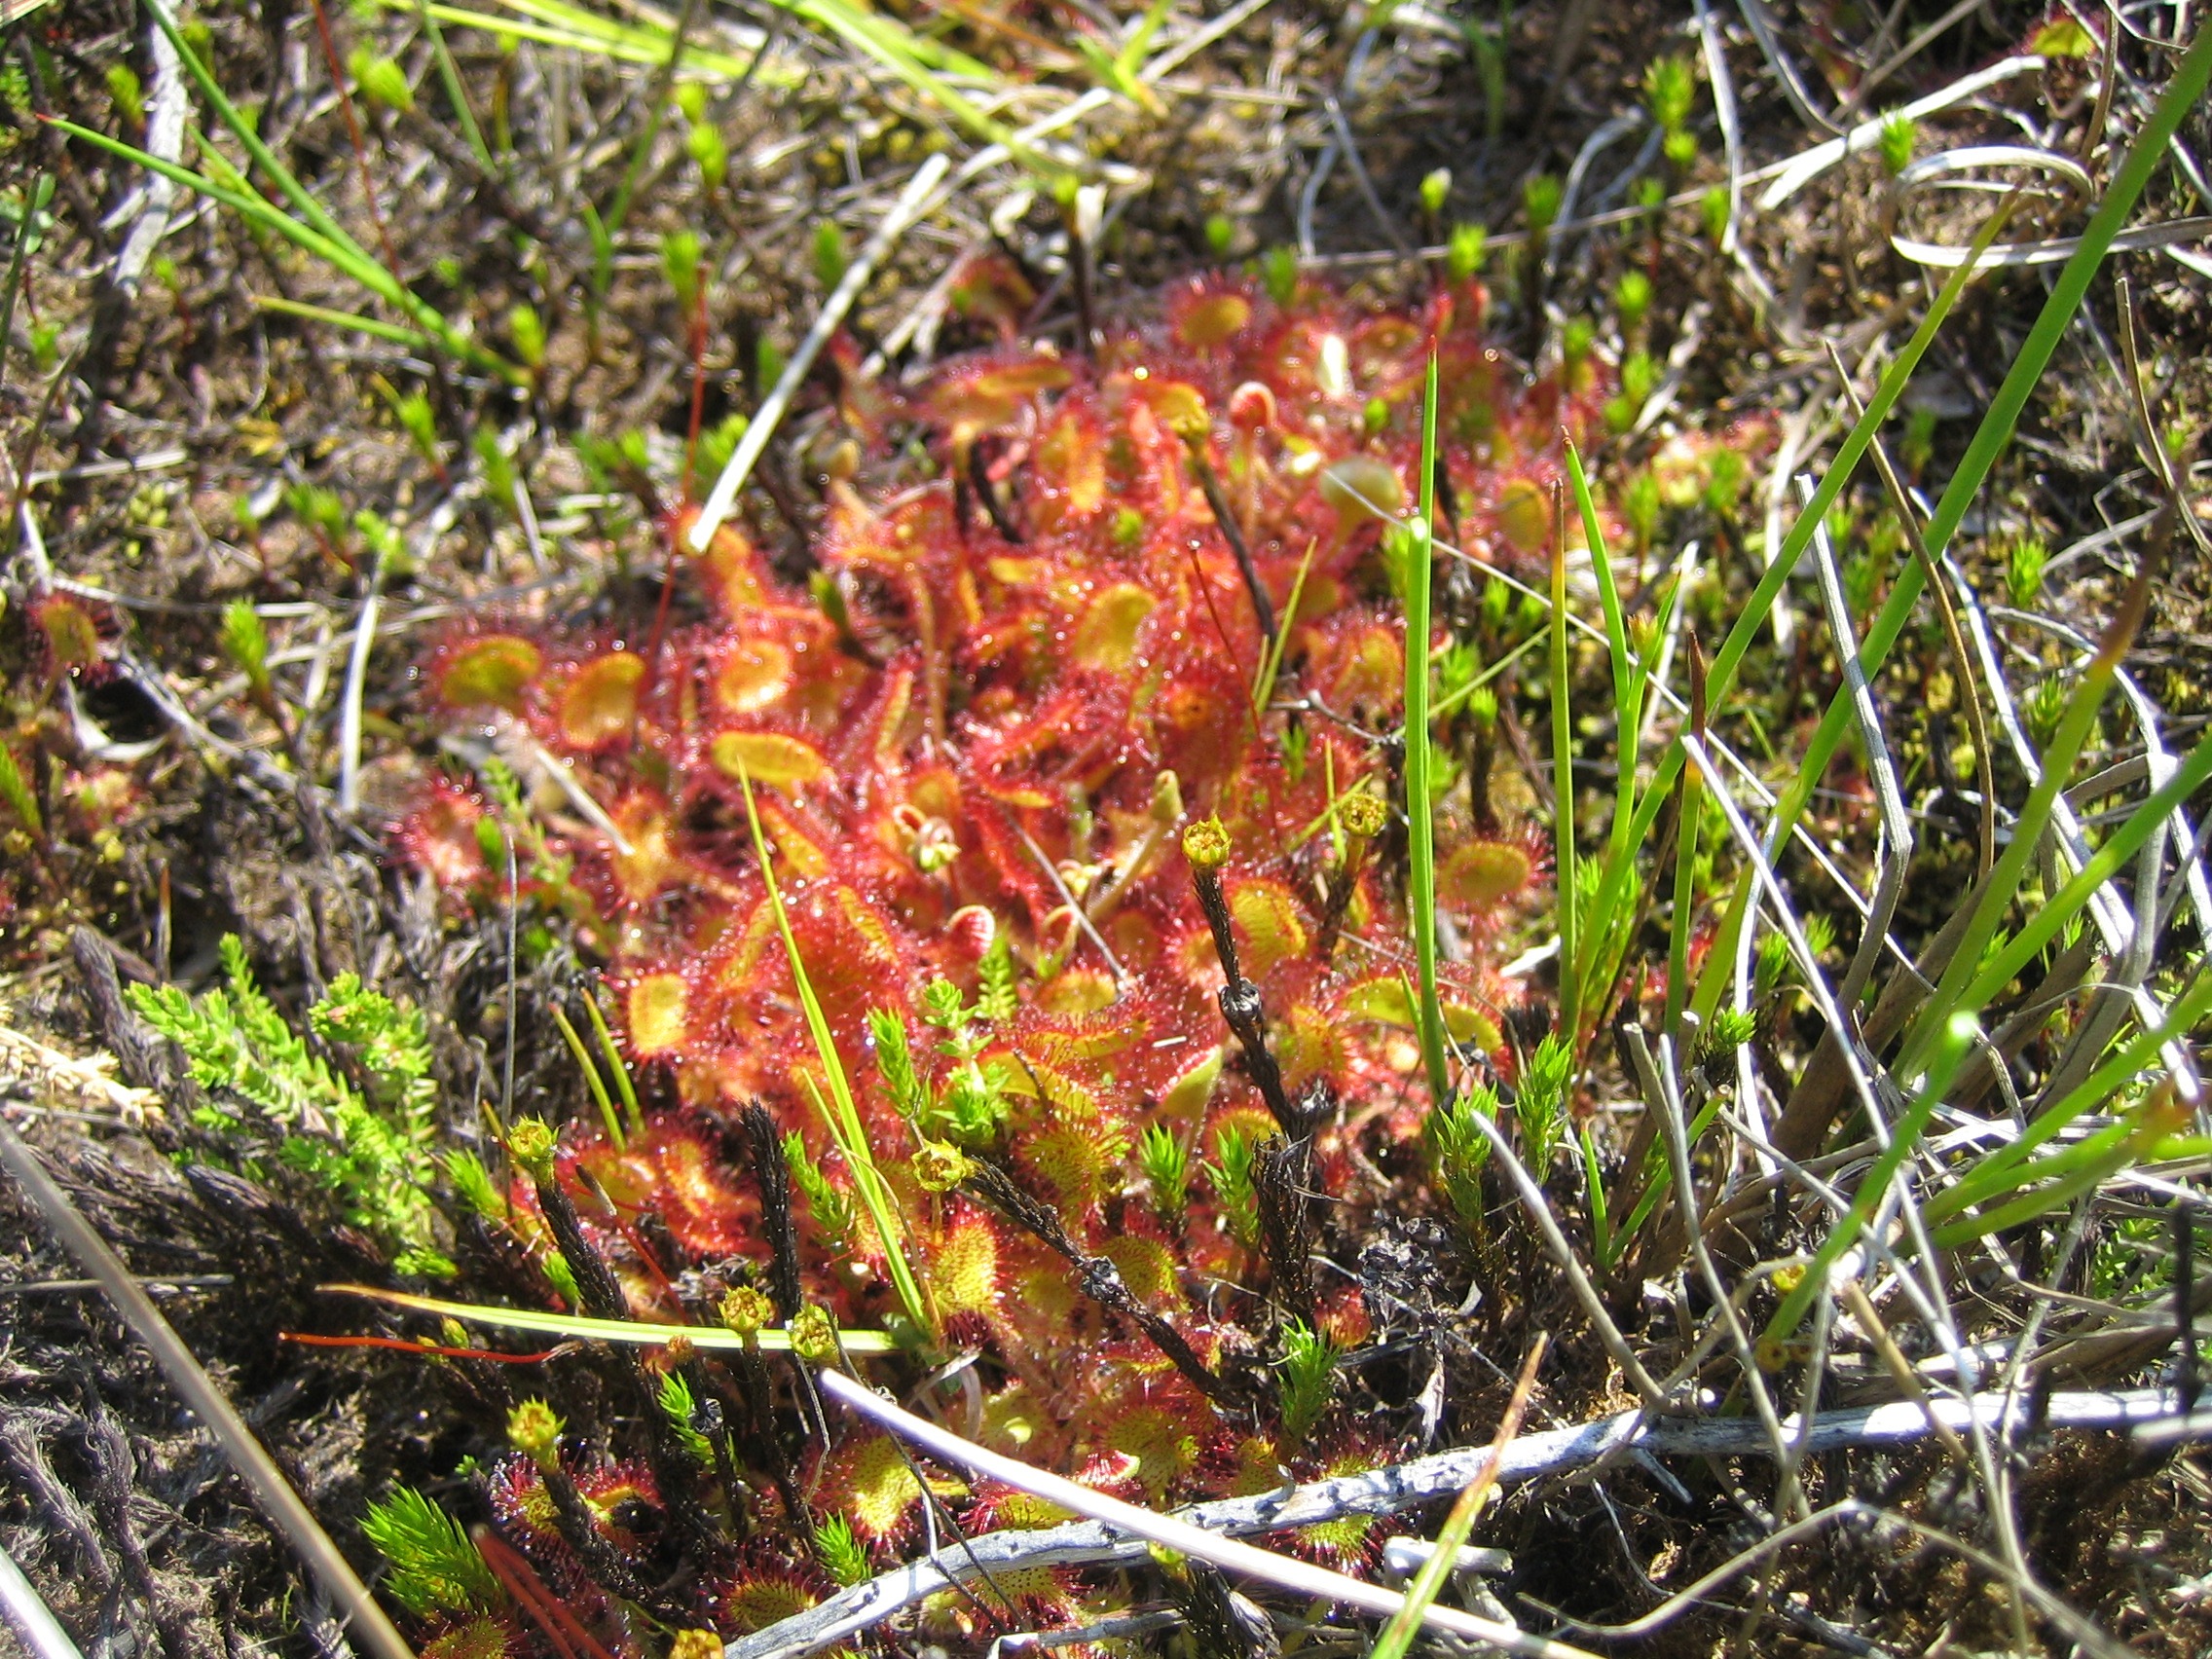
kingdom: Plantae
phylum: Tracheophyta
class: Magnoliopsida
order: Caryophyllales
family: Droseraceae
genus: Drosera
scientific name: Drosera rotundifolia
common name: Rundbladet soldug
